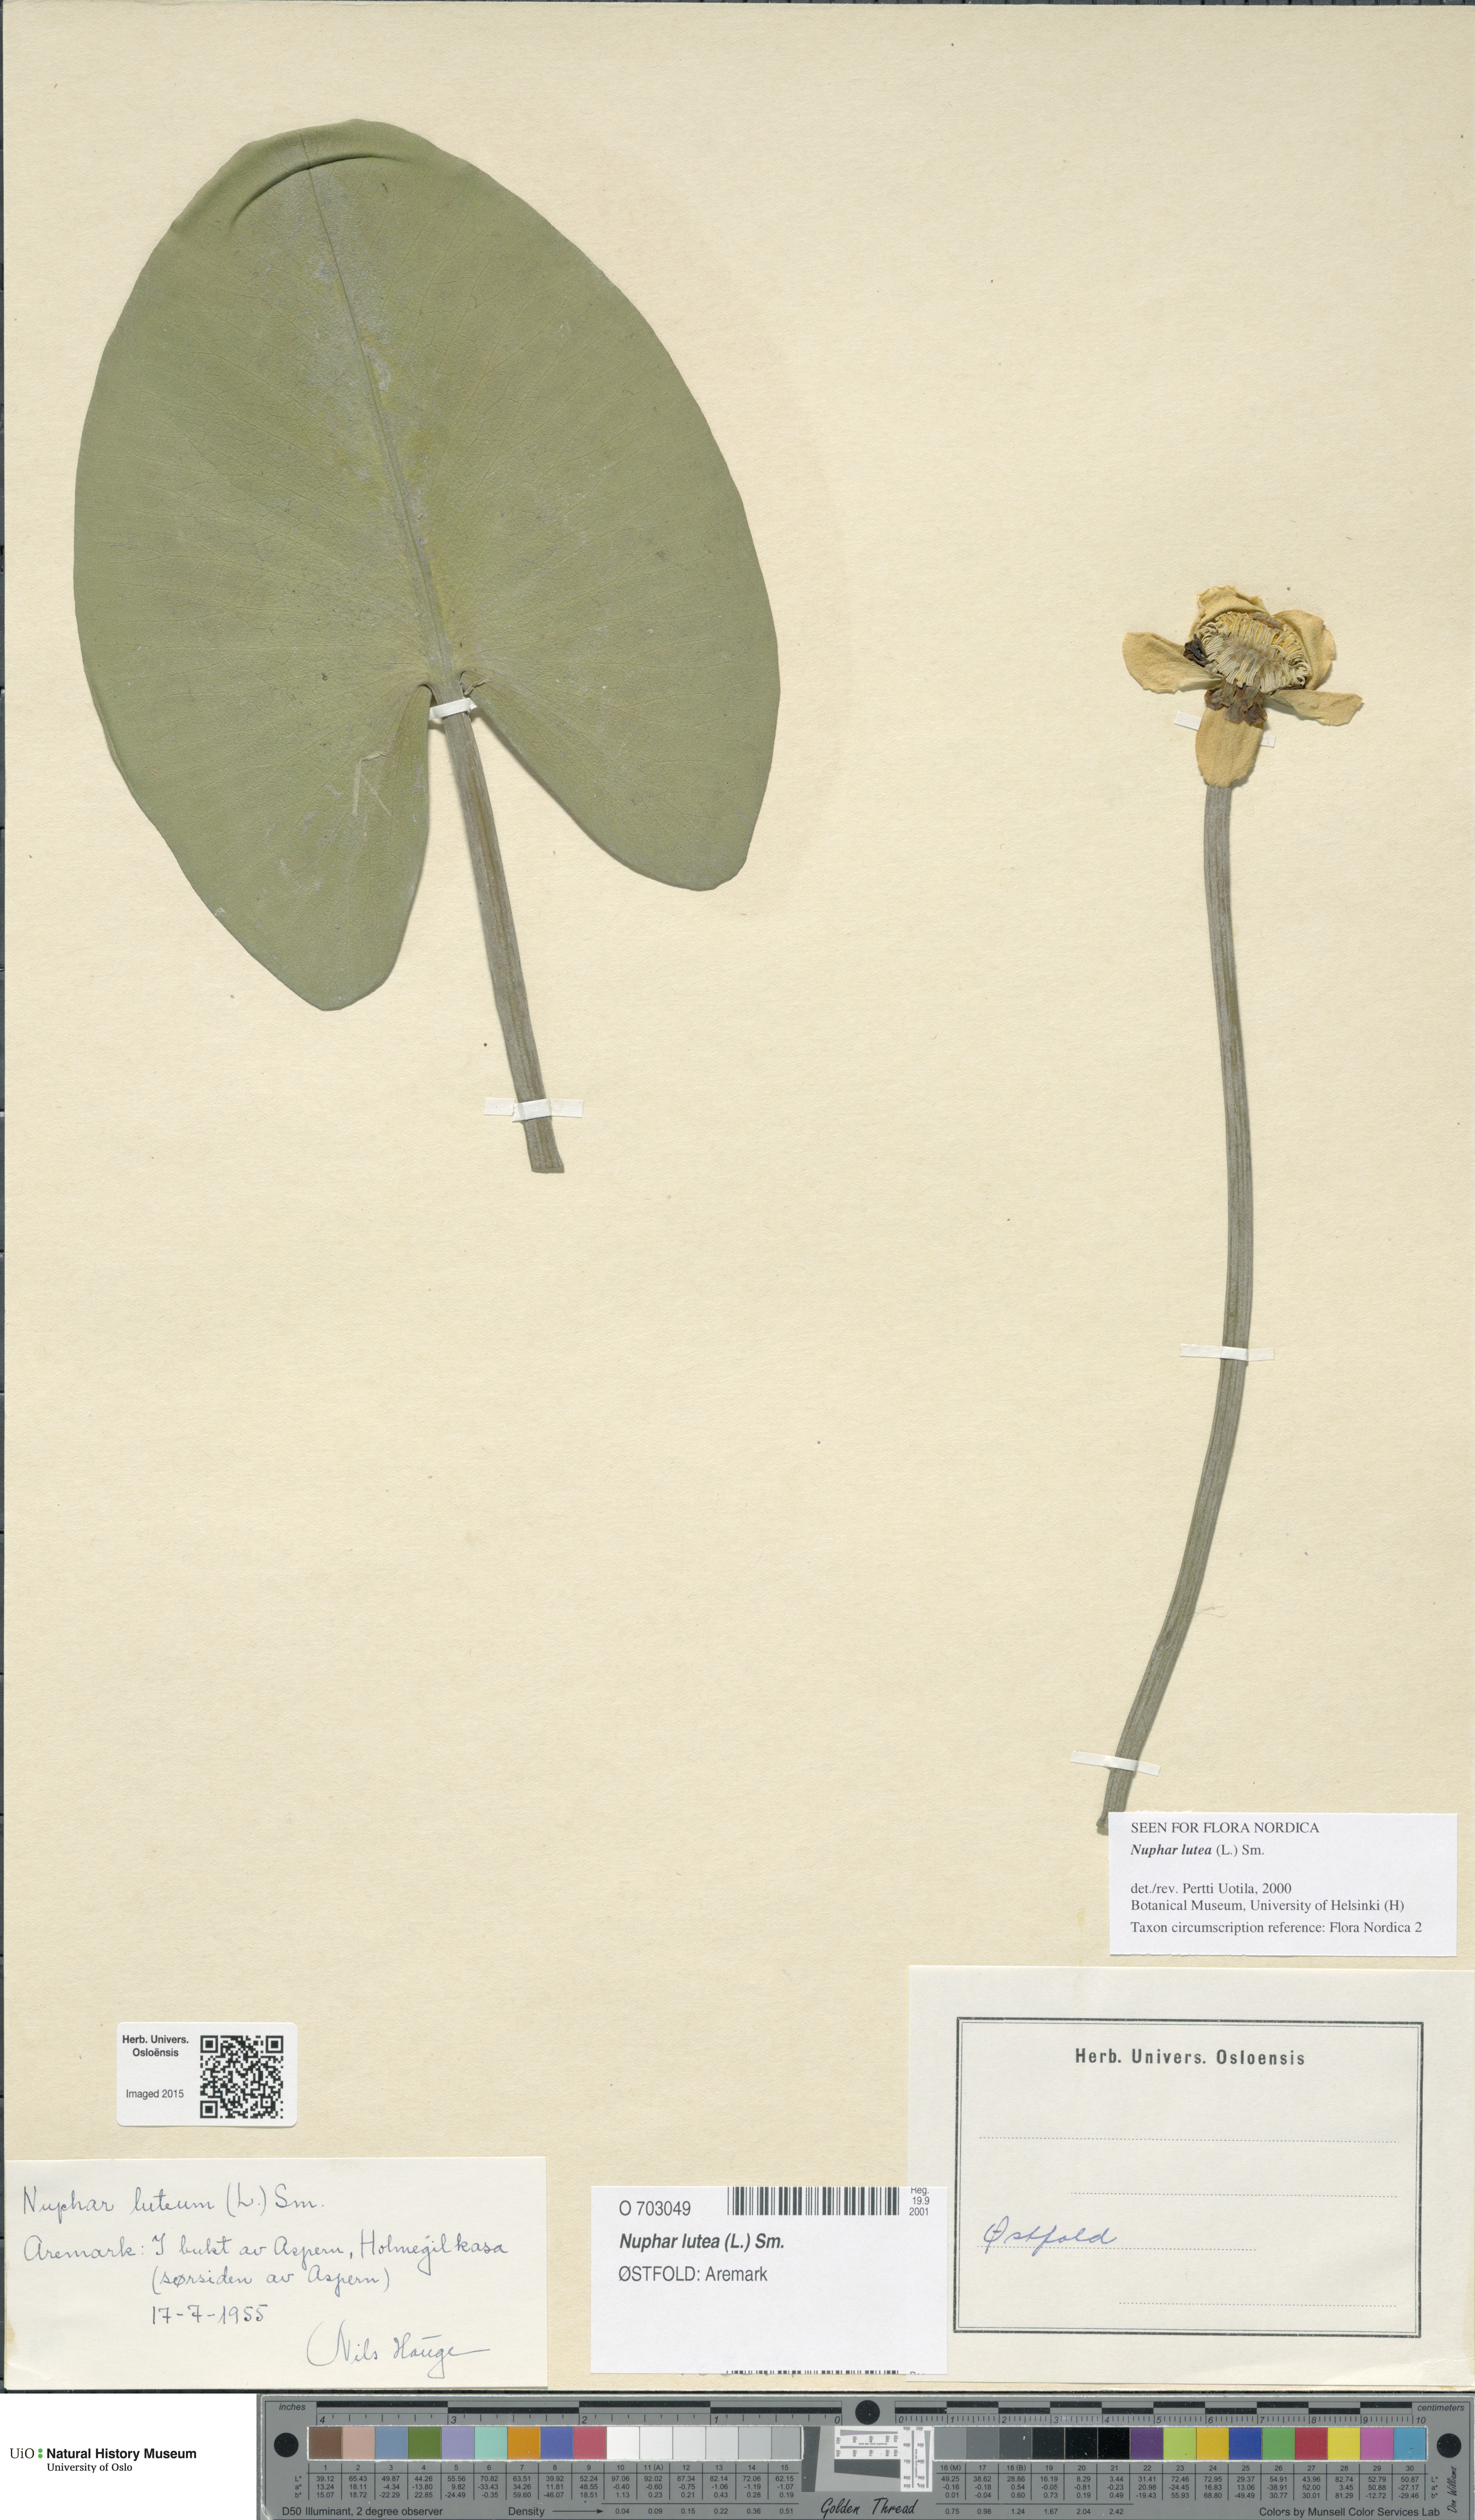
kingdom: Plantae
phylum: Tracheophyta
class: Magnoliopsida
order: Nymphaeales
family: Nymphaeaceae
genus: Nuphar
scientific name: Nuphar lutea
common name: Yellow water-lily
